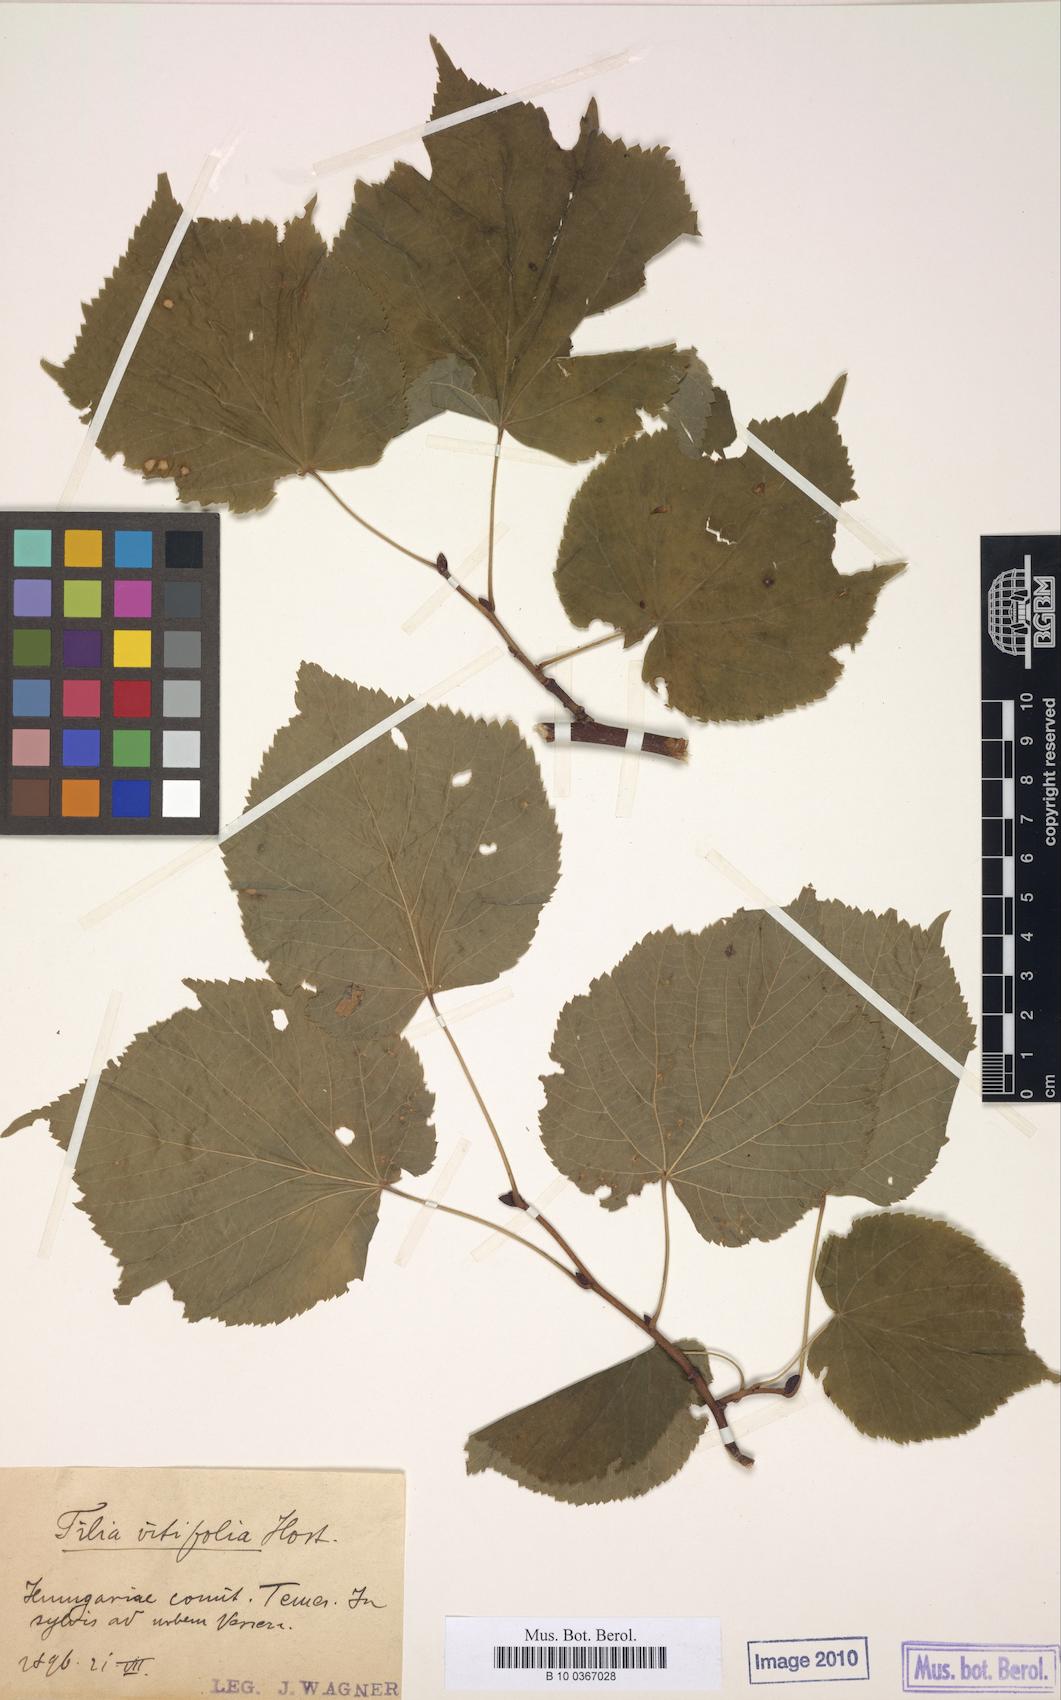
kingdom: Plantae
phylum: Tracheophyta
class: Magnoliopsida
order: Malvales
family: Malvaceae
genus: Tilia
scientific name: Tilia platyphyllos
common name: Large-leaved lime
